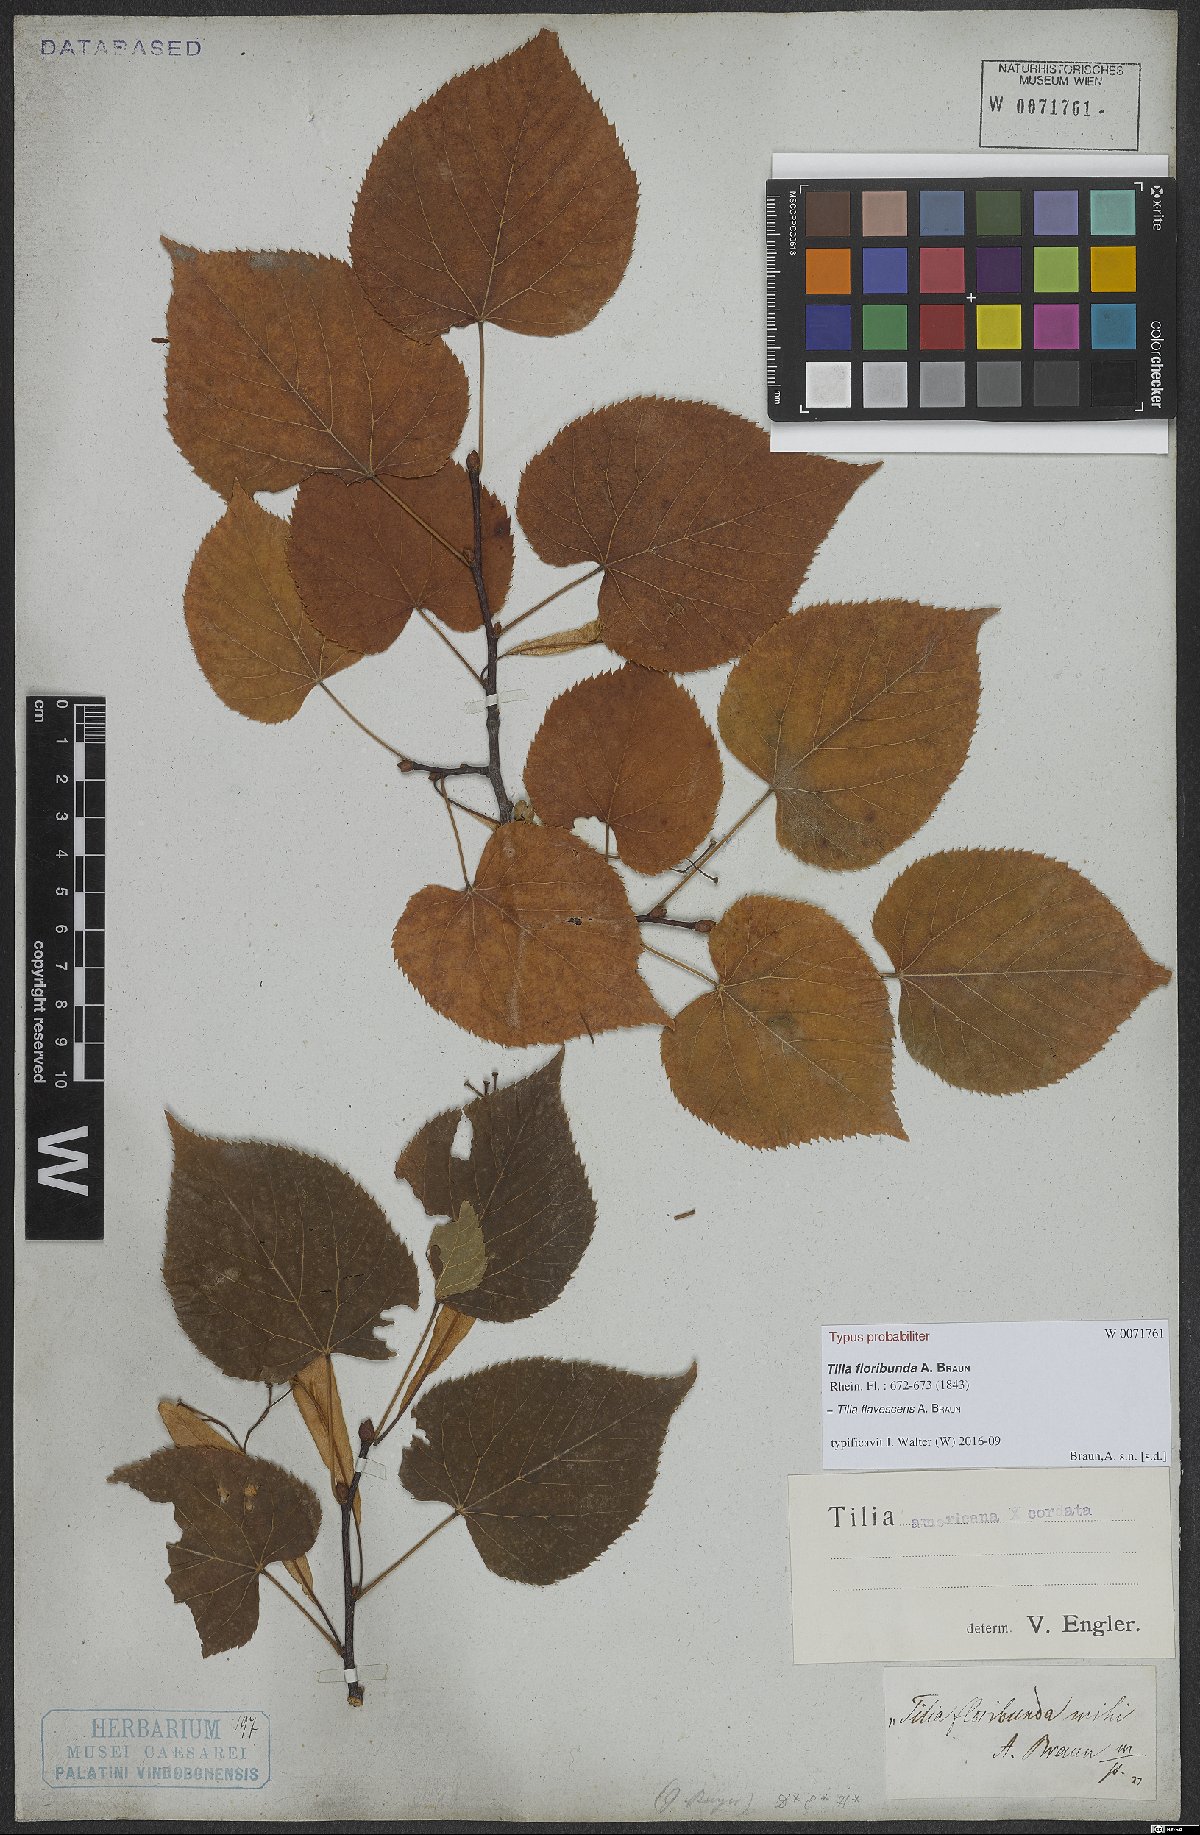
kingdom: Plantae
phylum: Tracheophyta
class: Magnoliopsida
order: Malvales
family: Tiliaceae
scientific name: Tiliaceae
